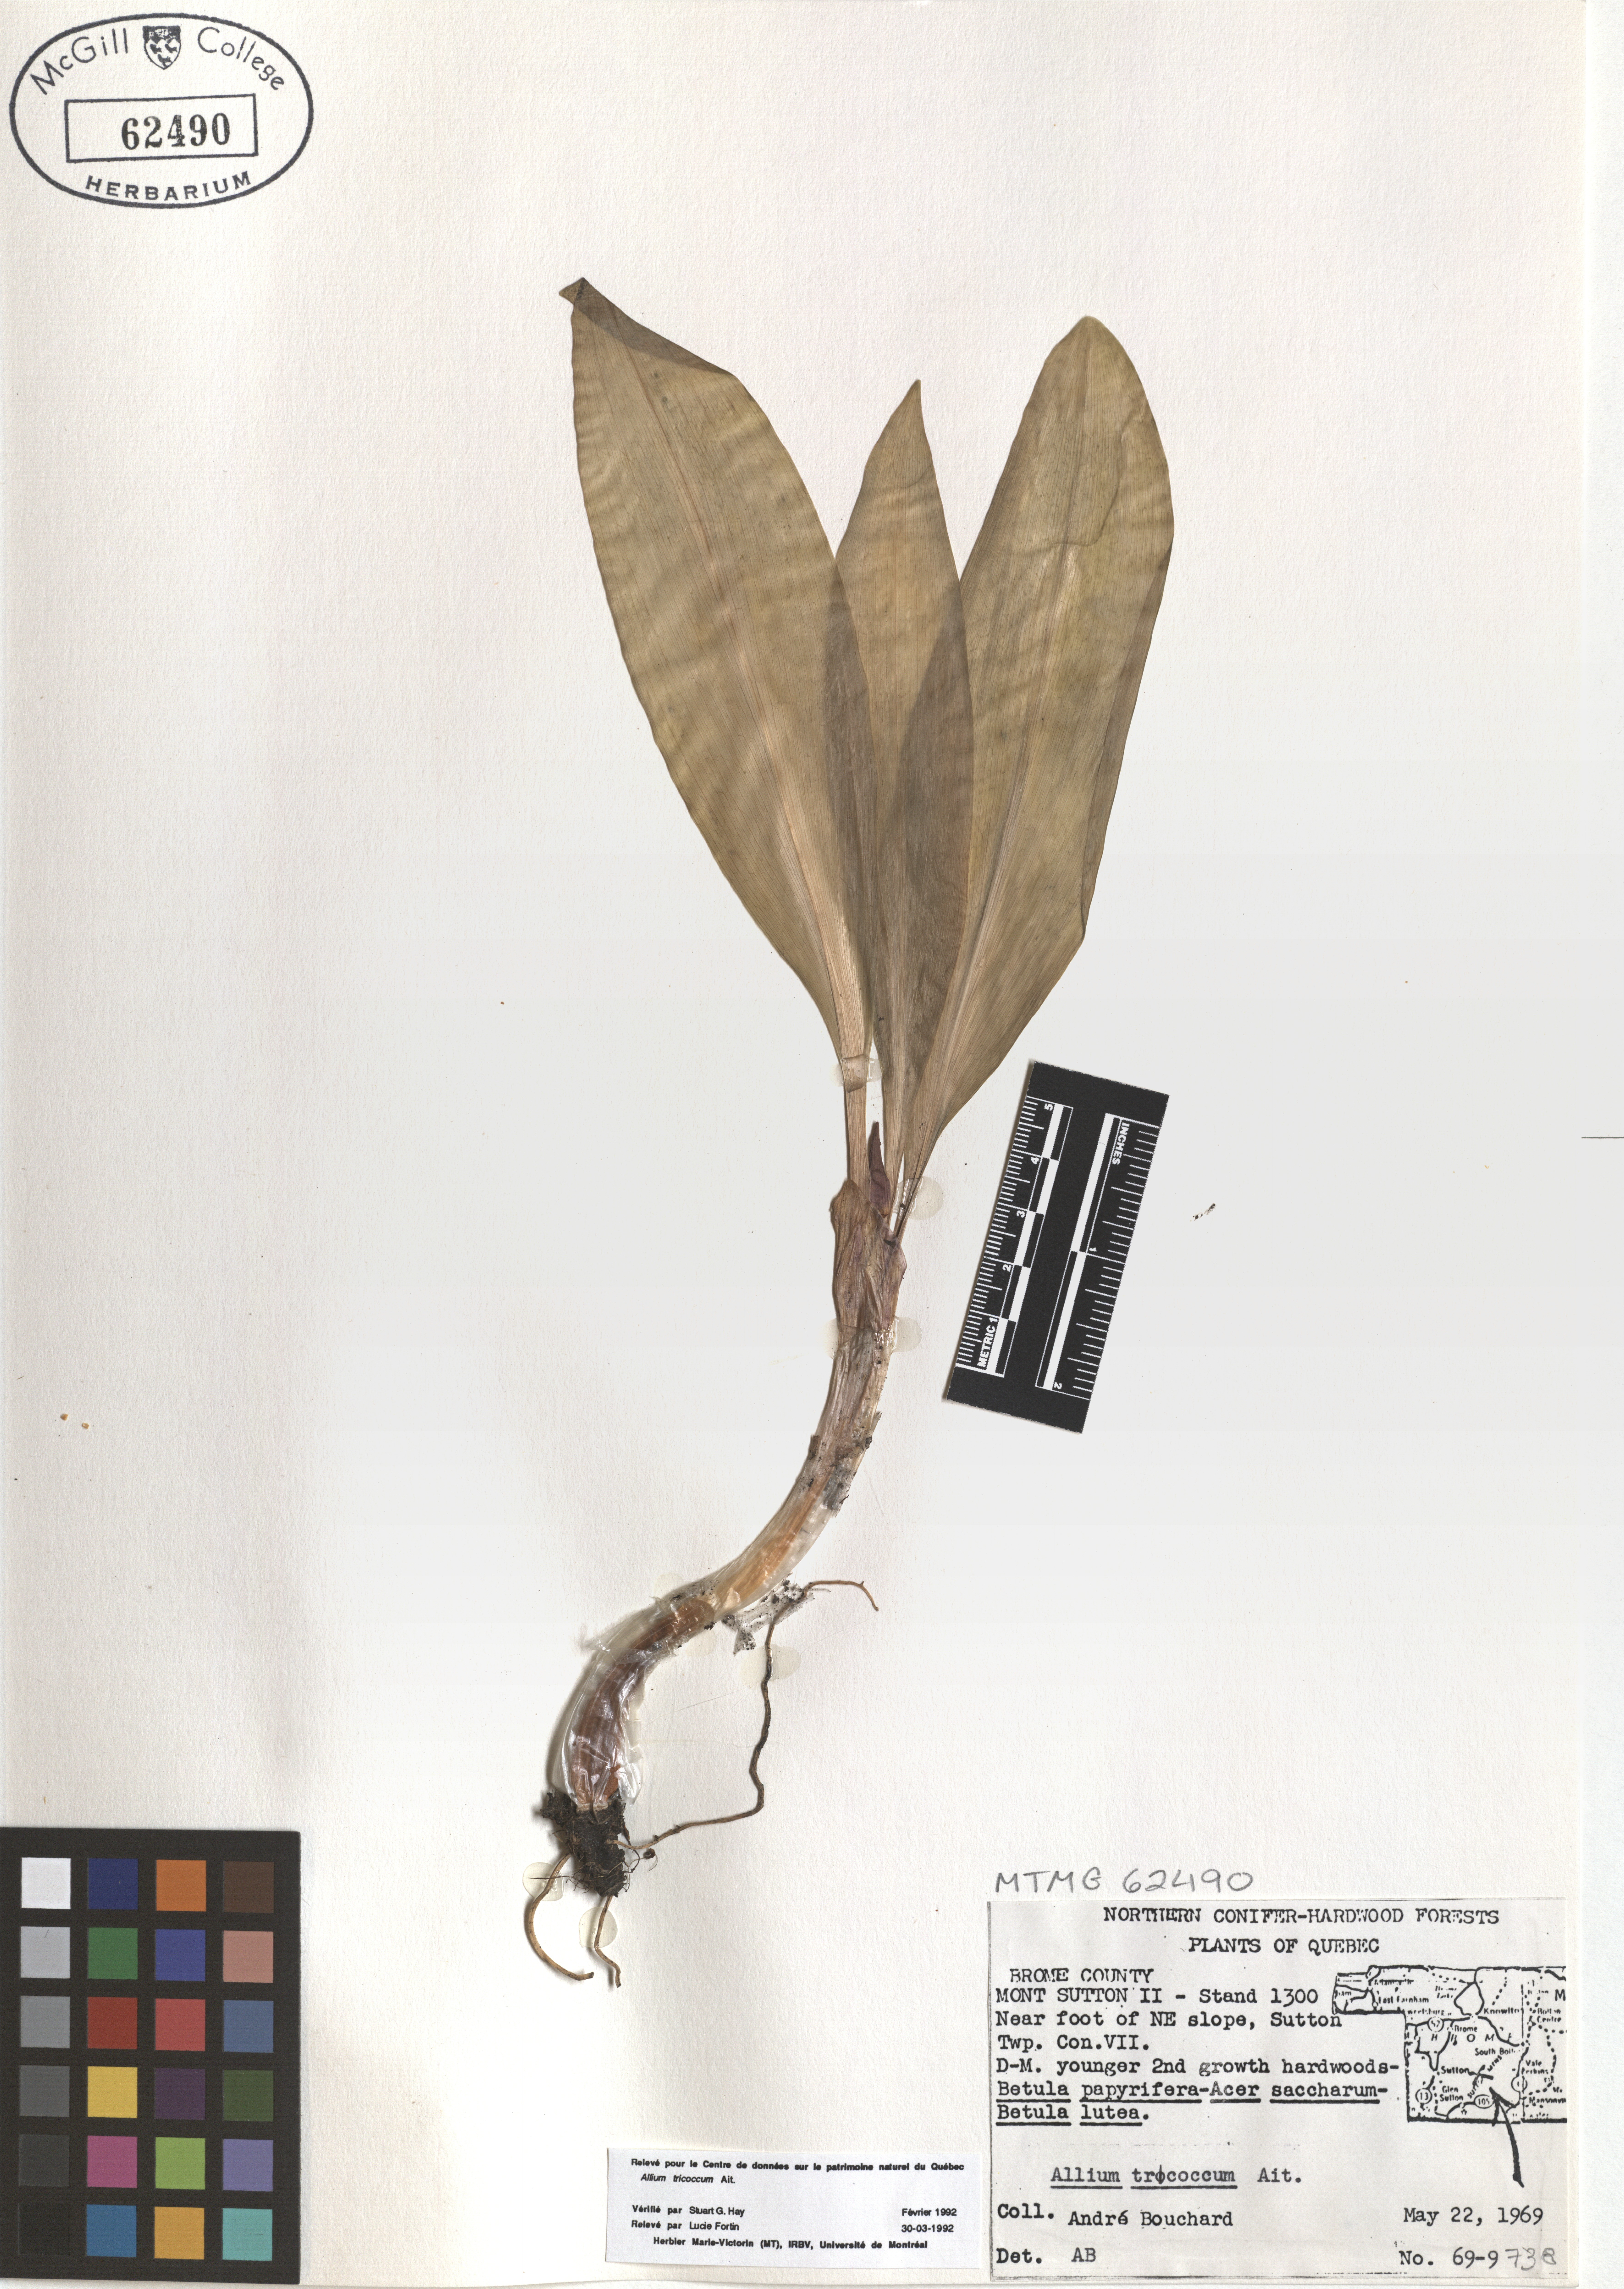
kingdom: Plantae
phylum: Tracheophyta
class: Liliopsida
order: Asparagales
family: Amaryllidaceae
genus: Allium
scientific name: Allium tricoccum
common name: Ramp
